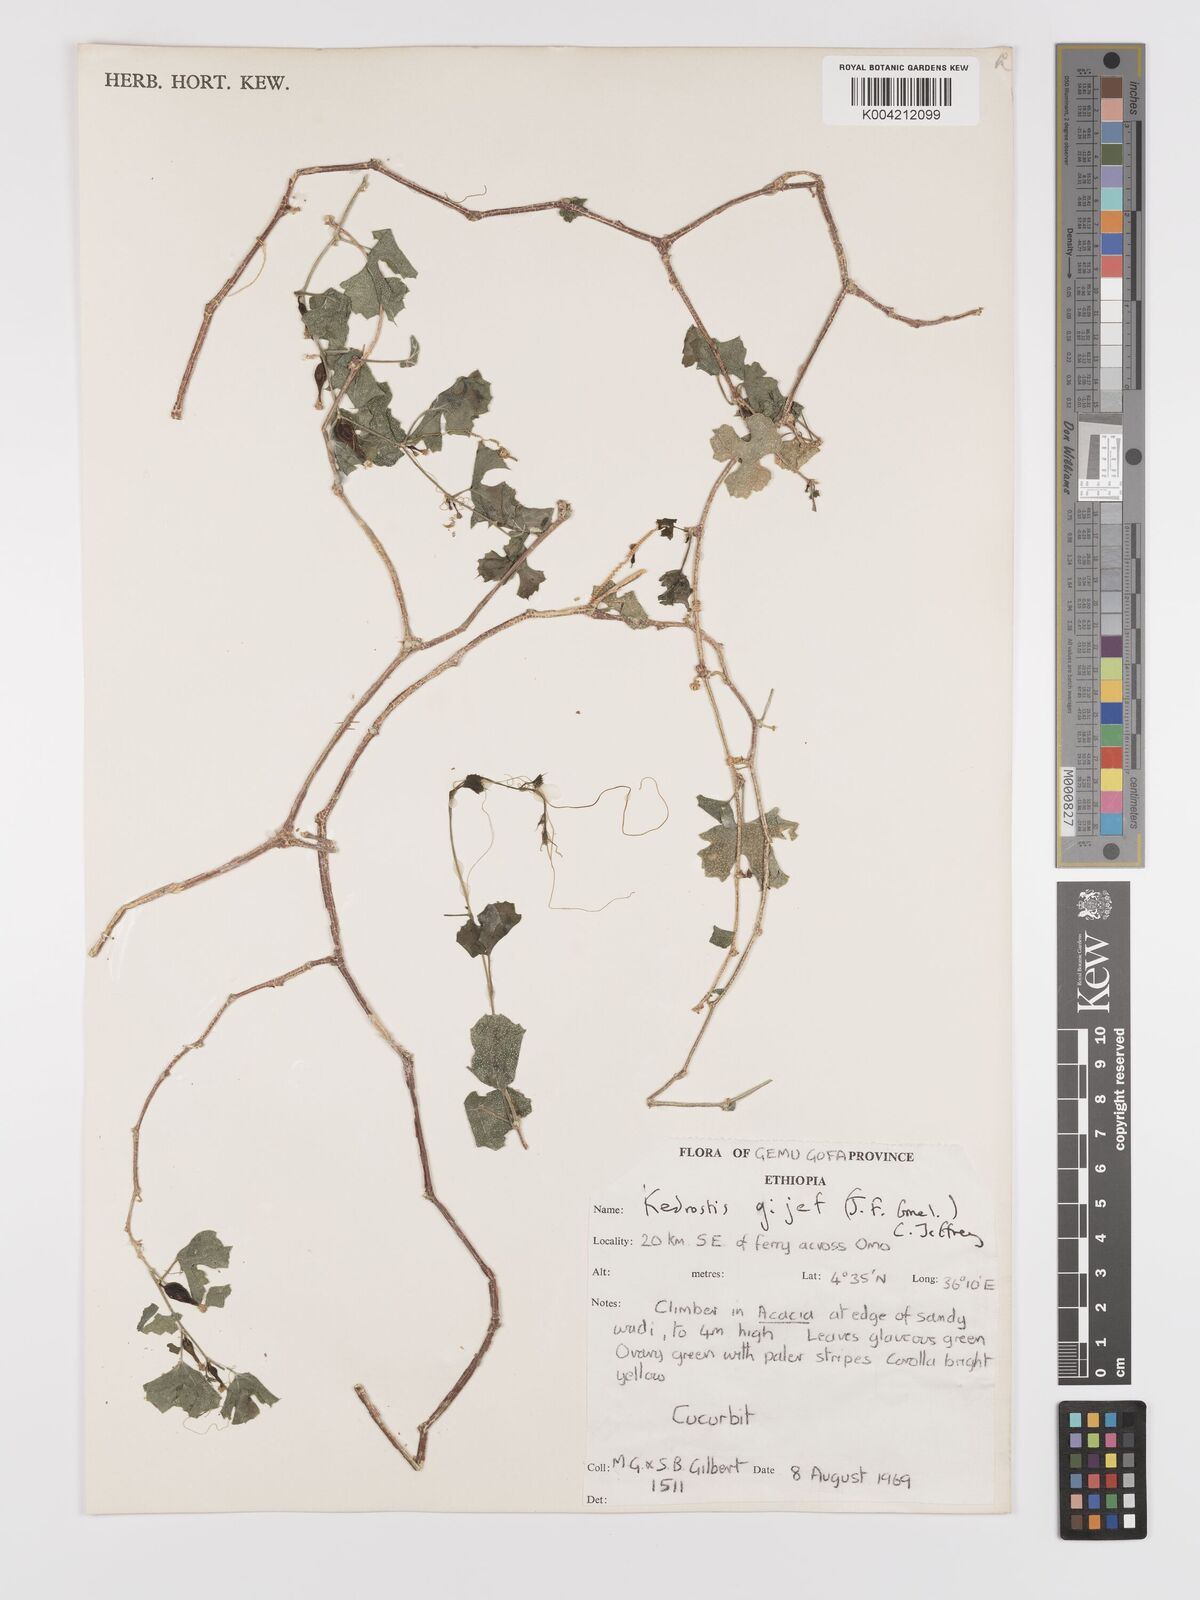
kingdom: Plantae
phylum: Tracheophyta
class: Magnoliopsida
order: Cucurbitales
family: Cucurbitaceae
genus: Kedrostis
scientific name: Kedrostis gijef
